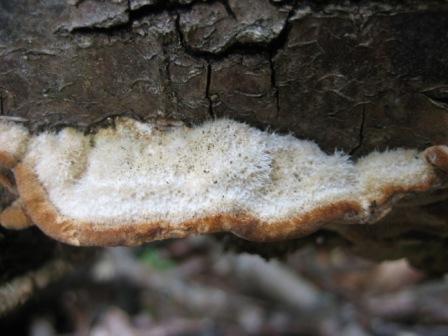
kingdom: Fungi
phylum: Basidiomycota
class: Agaricomycetes
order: Polyporales
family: Polyporaceae
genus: Trametes
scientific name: Trametes hirsuta
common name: håret læderporesvamp
